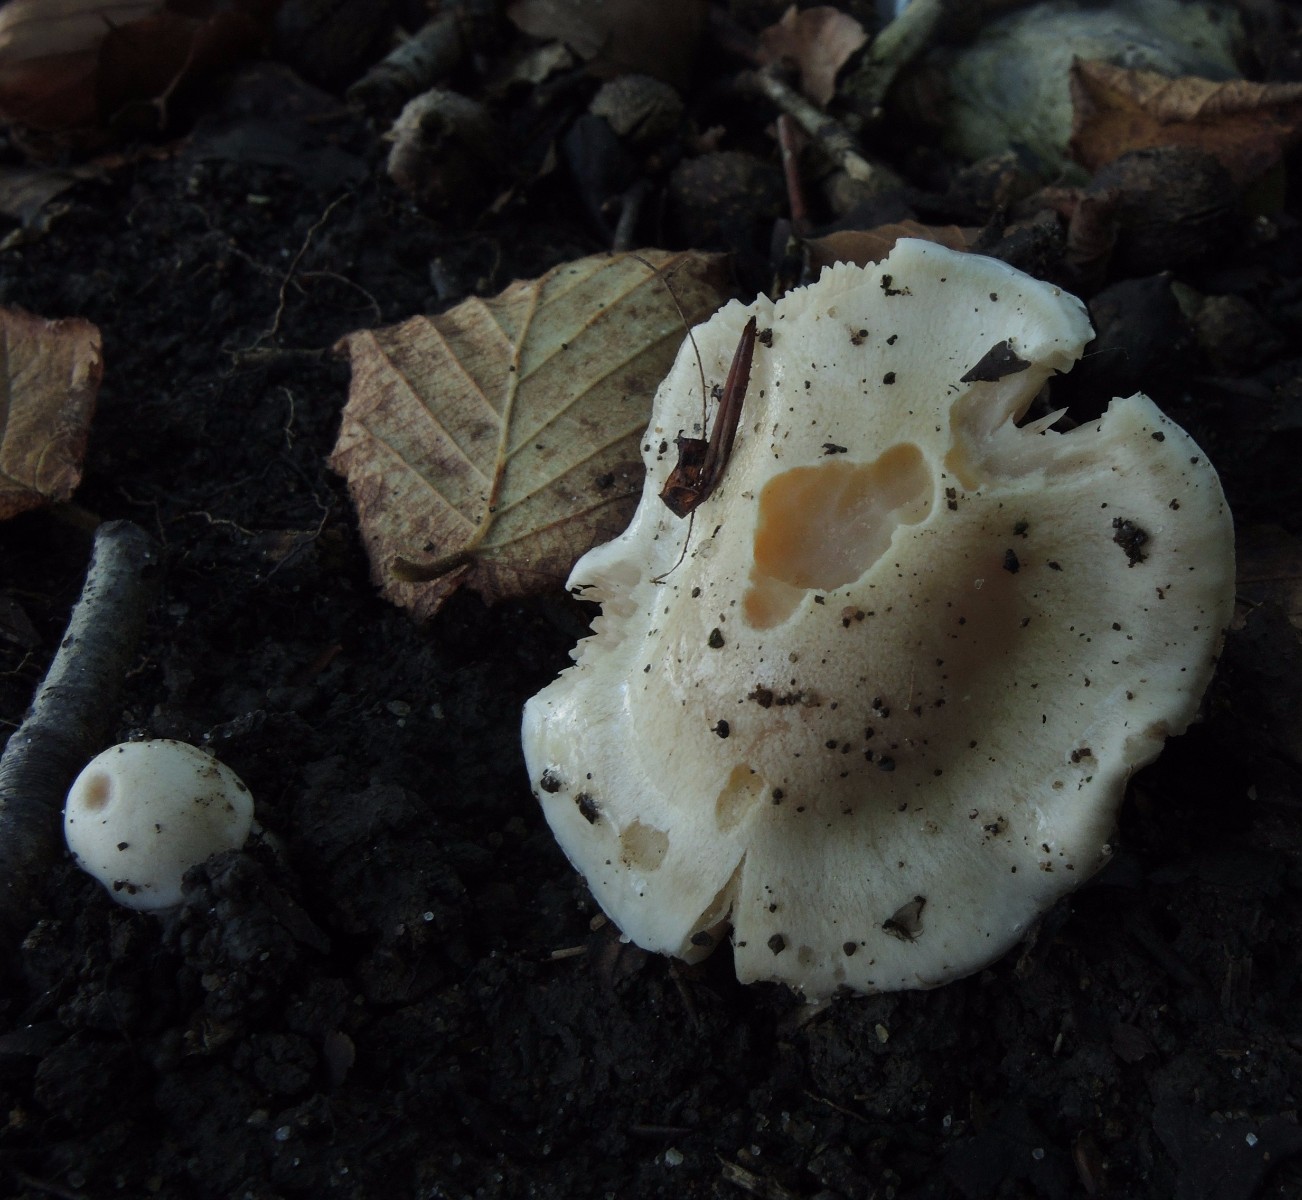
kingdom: Fungi
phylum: Basidiomycota
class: Agaricomycetes
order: Agaricales
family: Cortinariaceae
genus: Thaxterogaster
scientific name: Thaxterogaster barbatus
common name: elfenbens-slørhat
